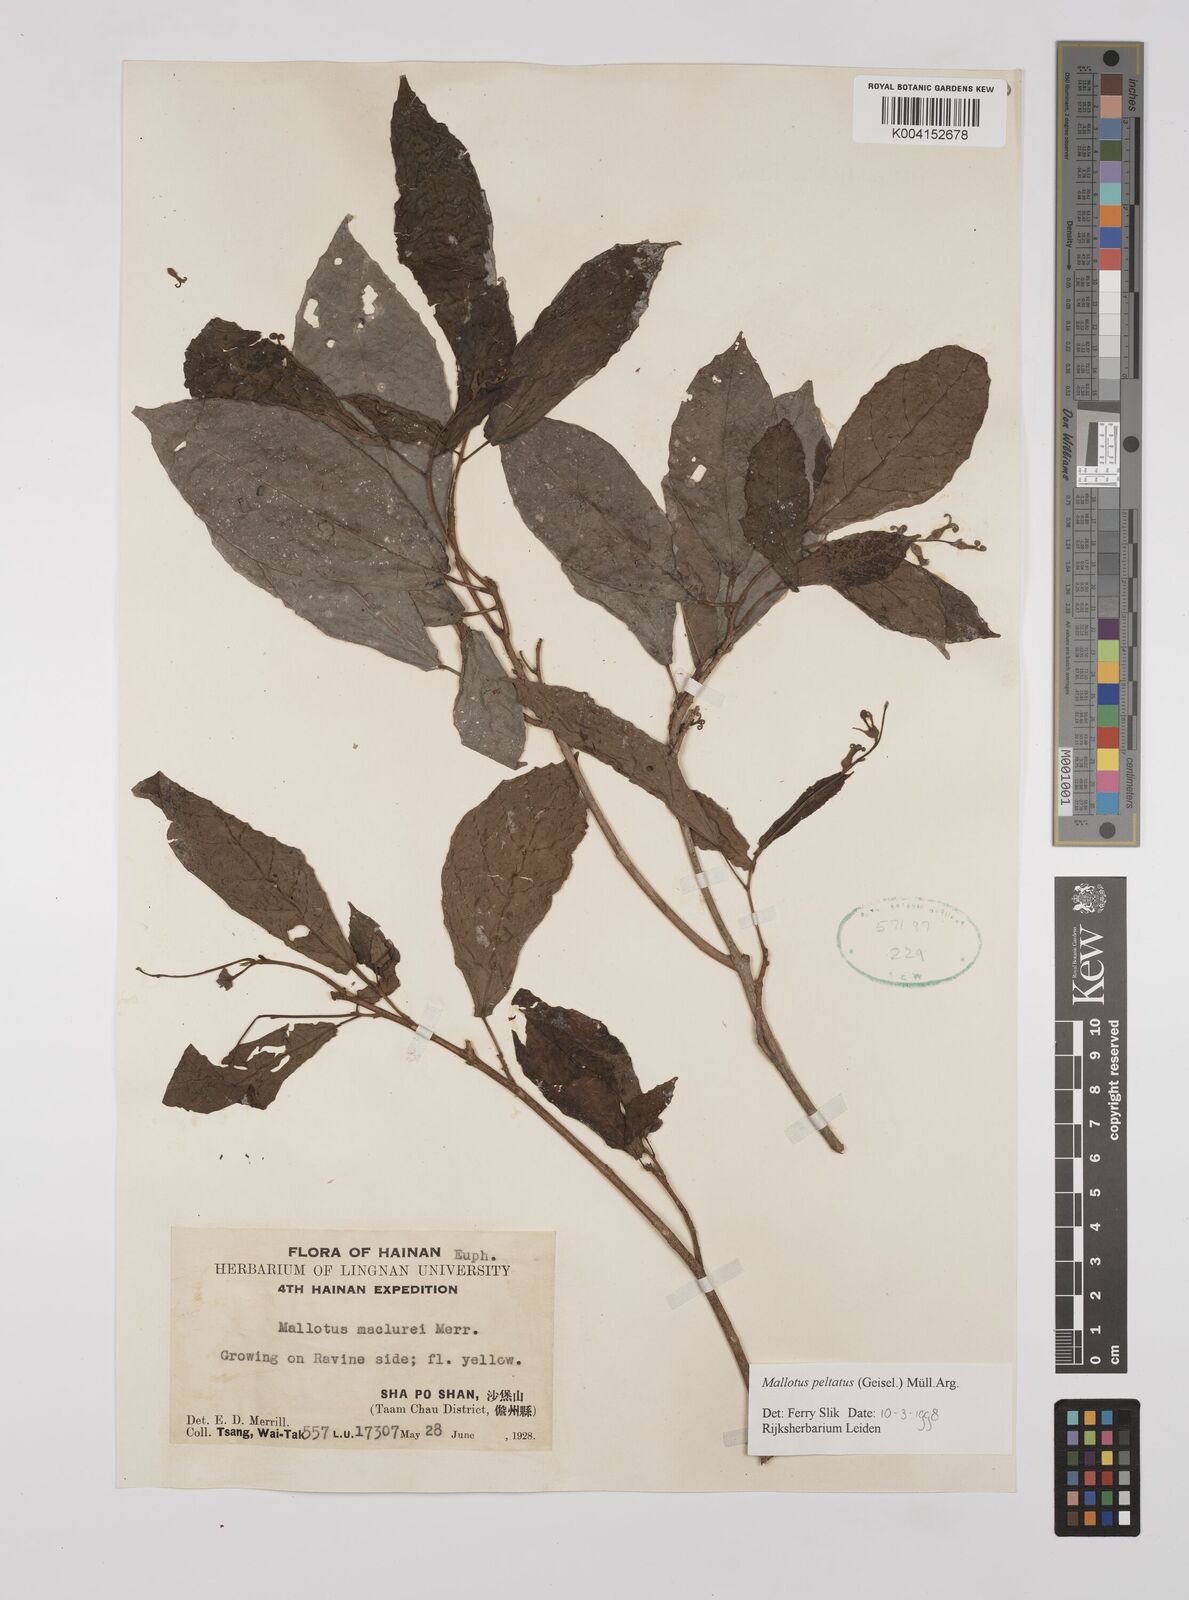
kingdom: Plantae
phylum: Tracheophyta
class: Magnoliopsida
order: Malpighiales
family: Euphorbiaceae
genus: Mallotus
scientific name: Mallotus peltatus
